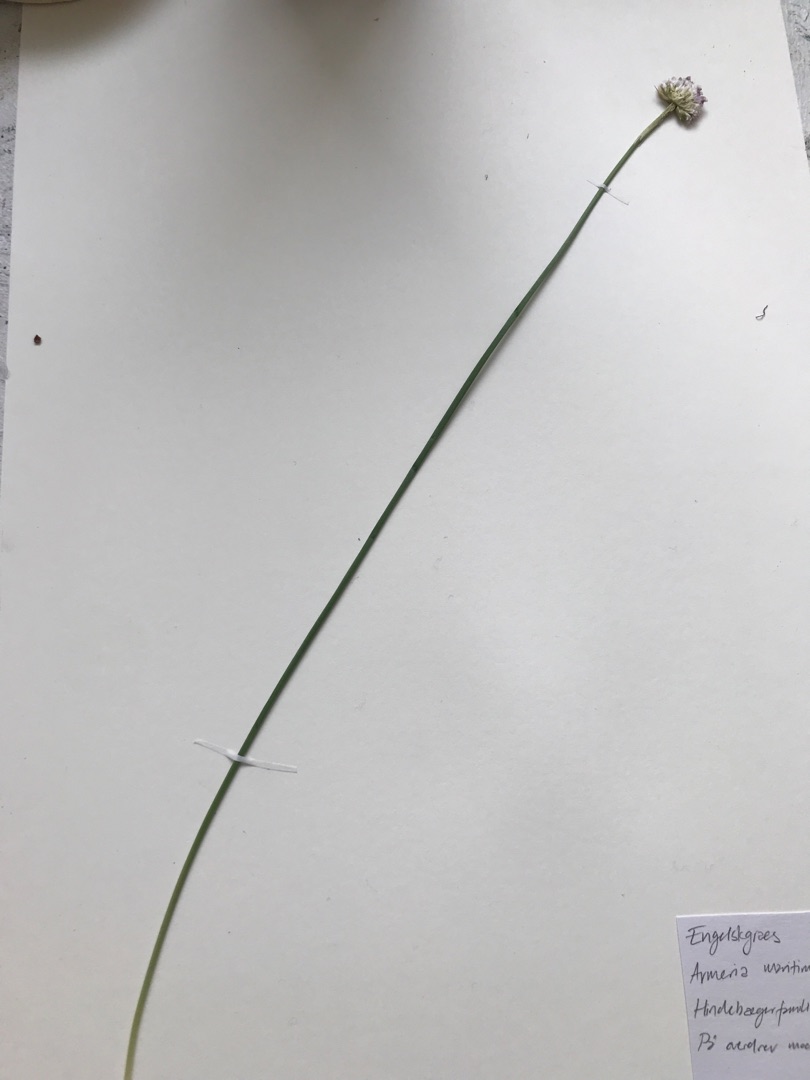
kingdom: Plantae
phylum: Tracheophyta
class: Magnoliopsida
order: Caryophyllales
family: Plumbaginaceae
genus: Armeria
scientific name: Armeria maritima
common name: Engelskgræs
